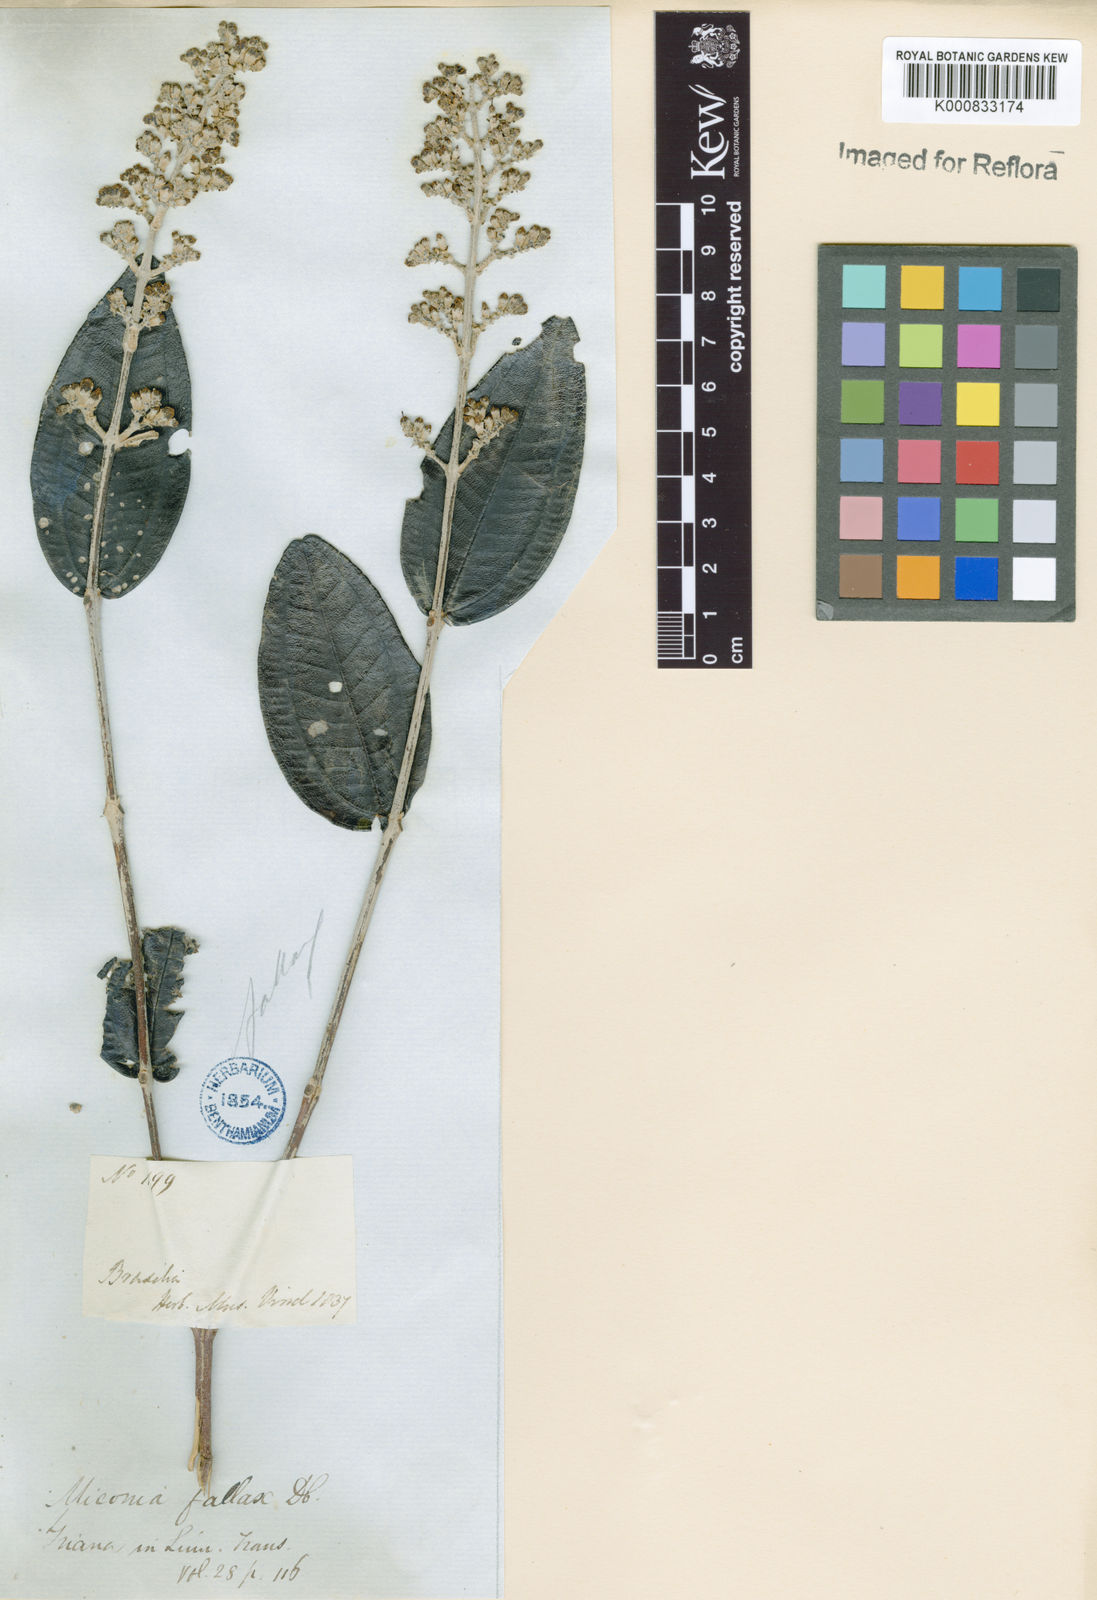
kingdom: Plantae
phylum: Tracheophyta
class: Magnoliopsida
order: Myrtales
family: Melastomataceae
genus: Miconia
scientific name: Miconia fallax
